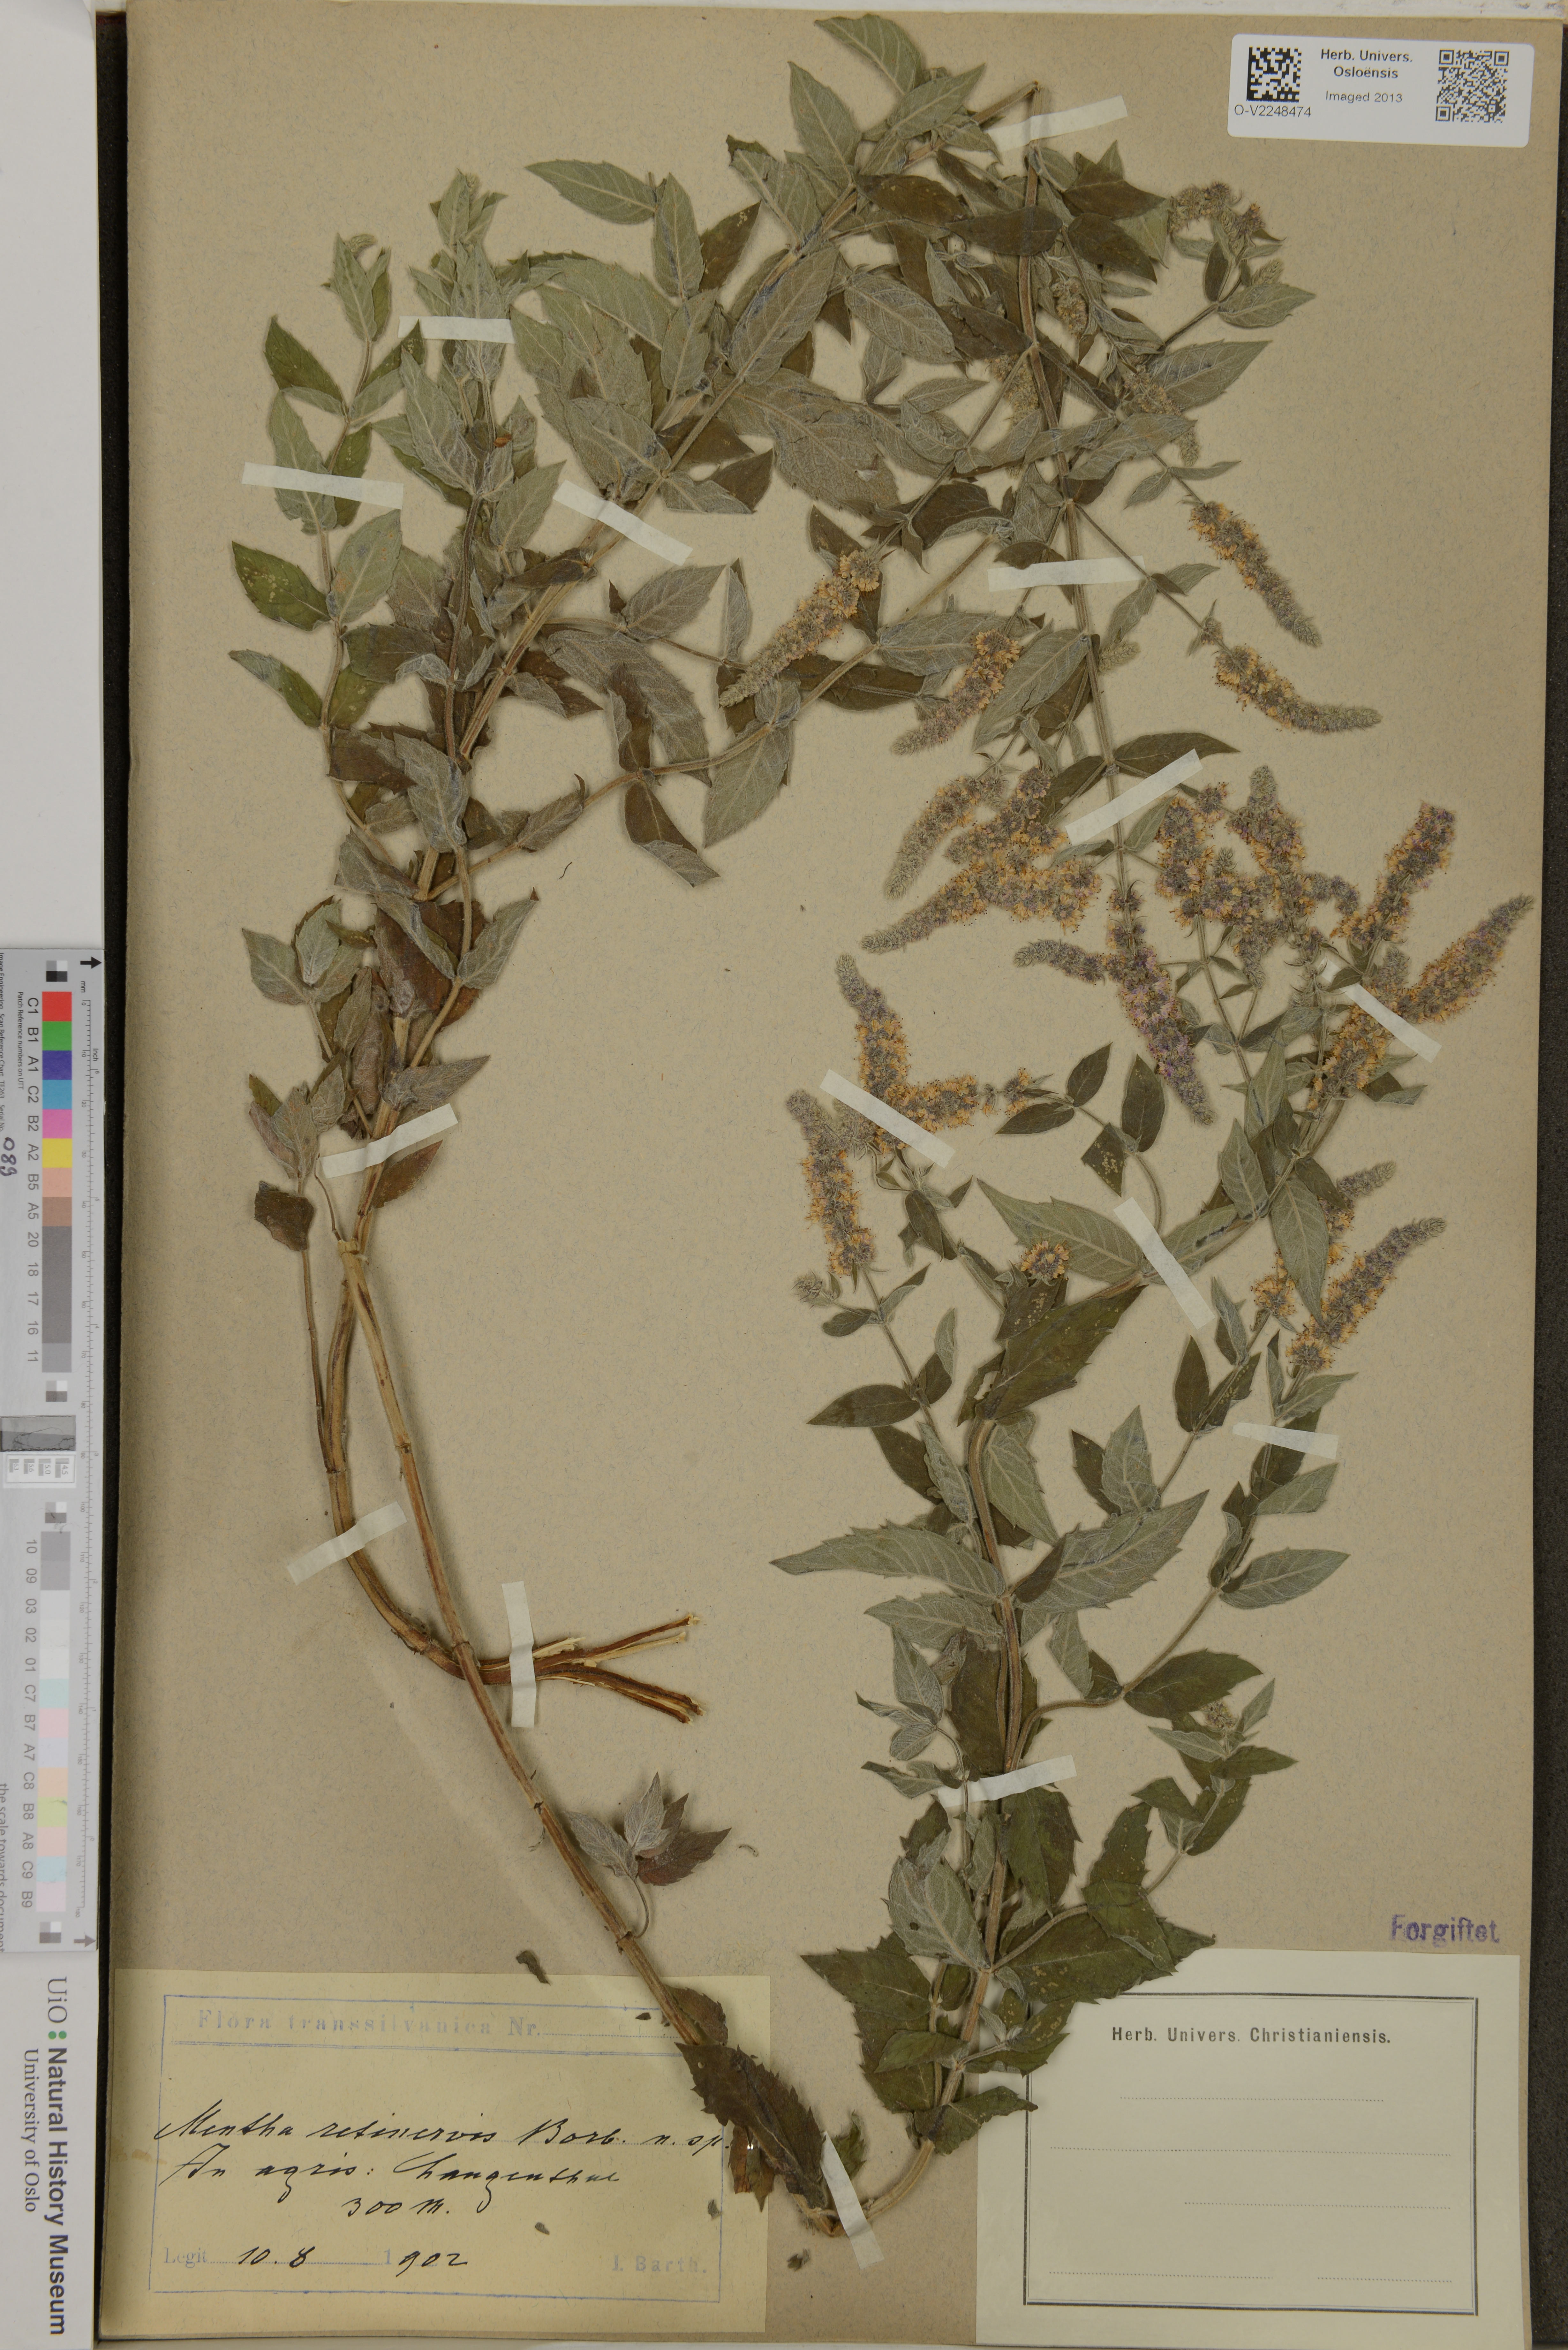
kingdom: Plantae
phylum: Tracheophyta
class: Magnoliopsida
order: Lamiales
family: Lamiaceae
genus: Mentha
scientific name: Mentha longifolia
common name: Horse mint
